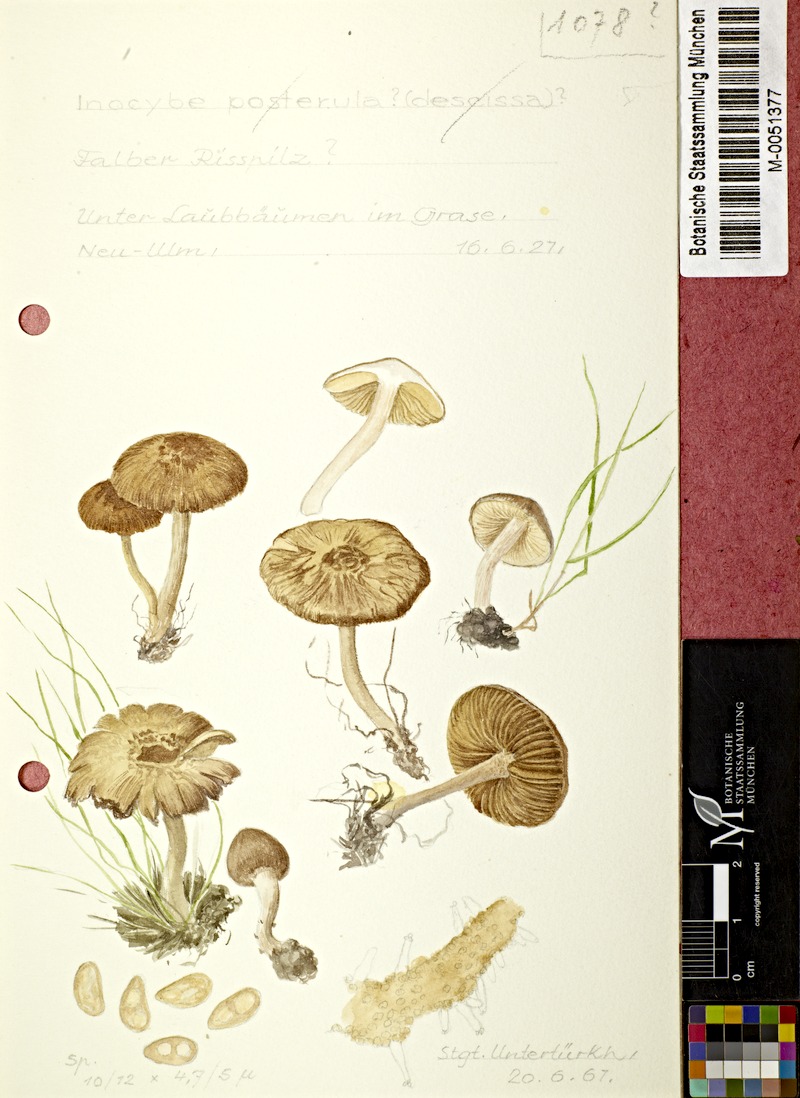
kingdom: Fungi
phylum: Basidiomycota
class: Agaricomycetes
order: Agaricales
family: Inocybaceae
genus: Inocybe
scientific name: Inocybe
